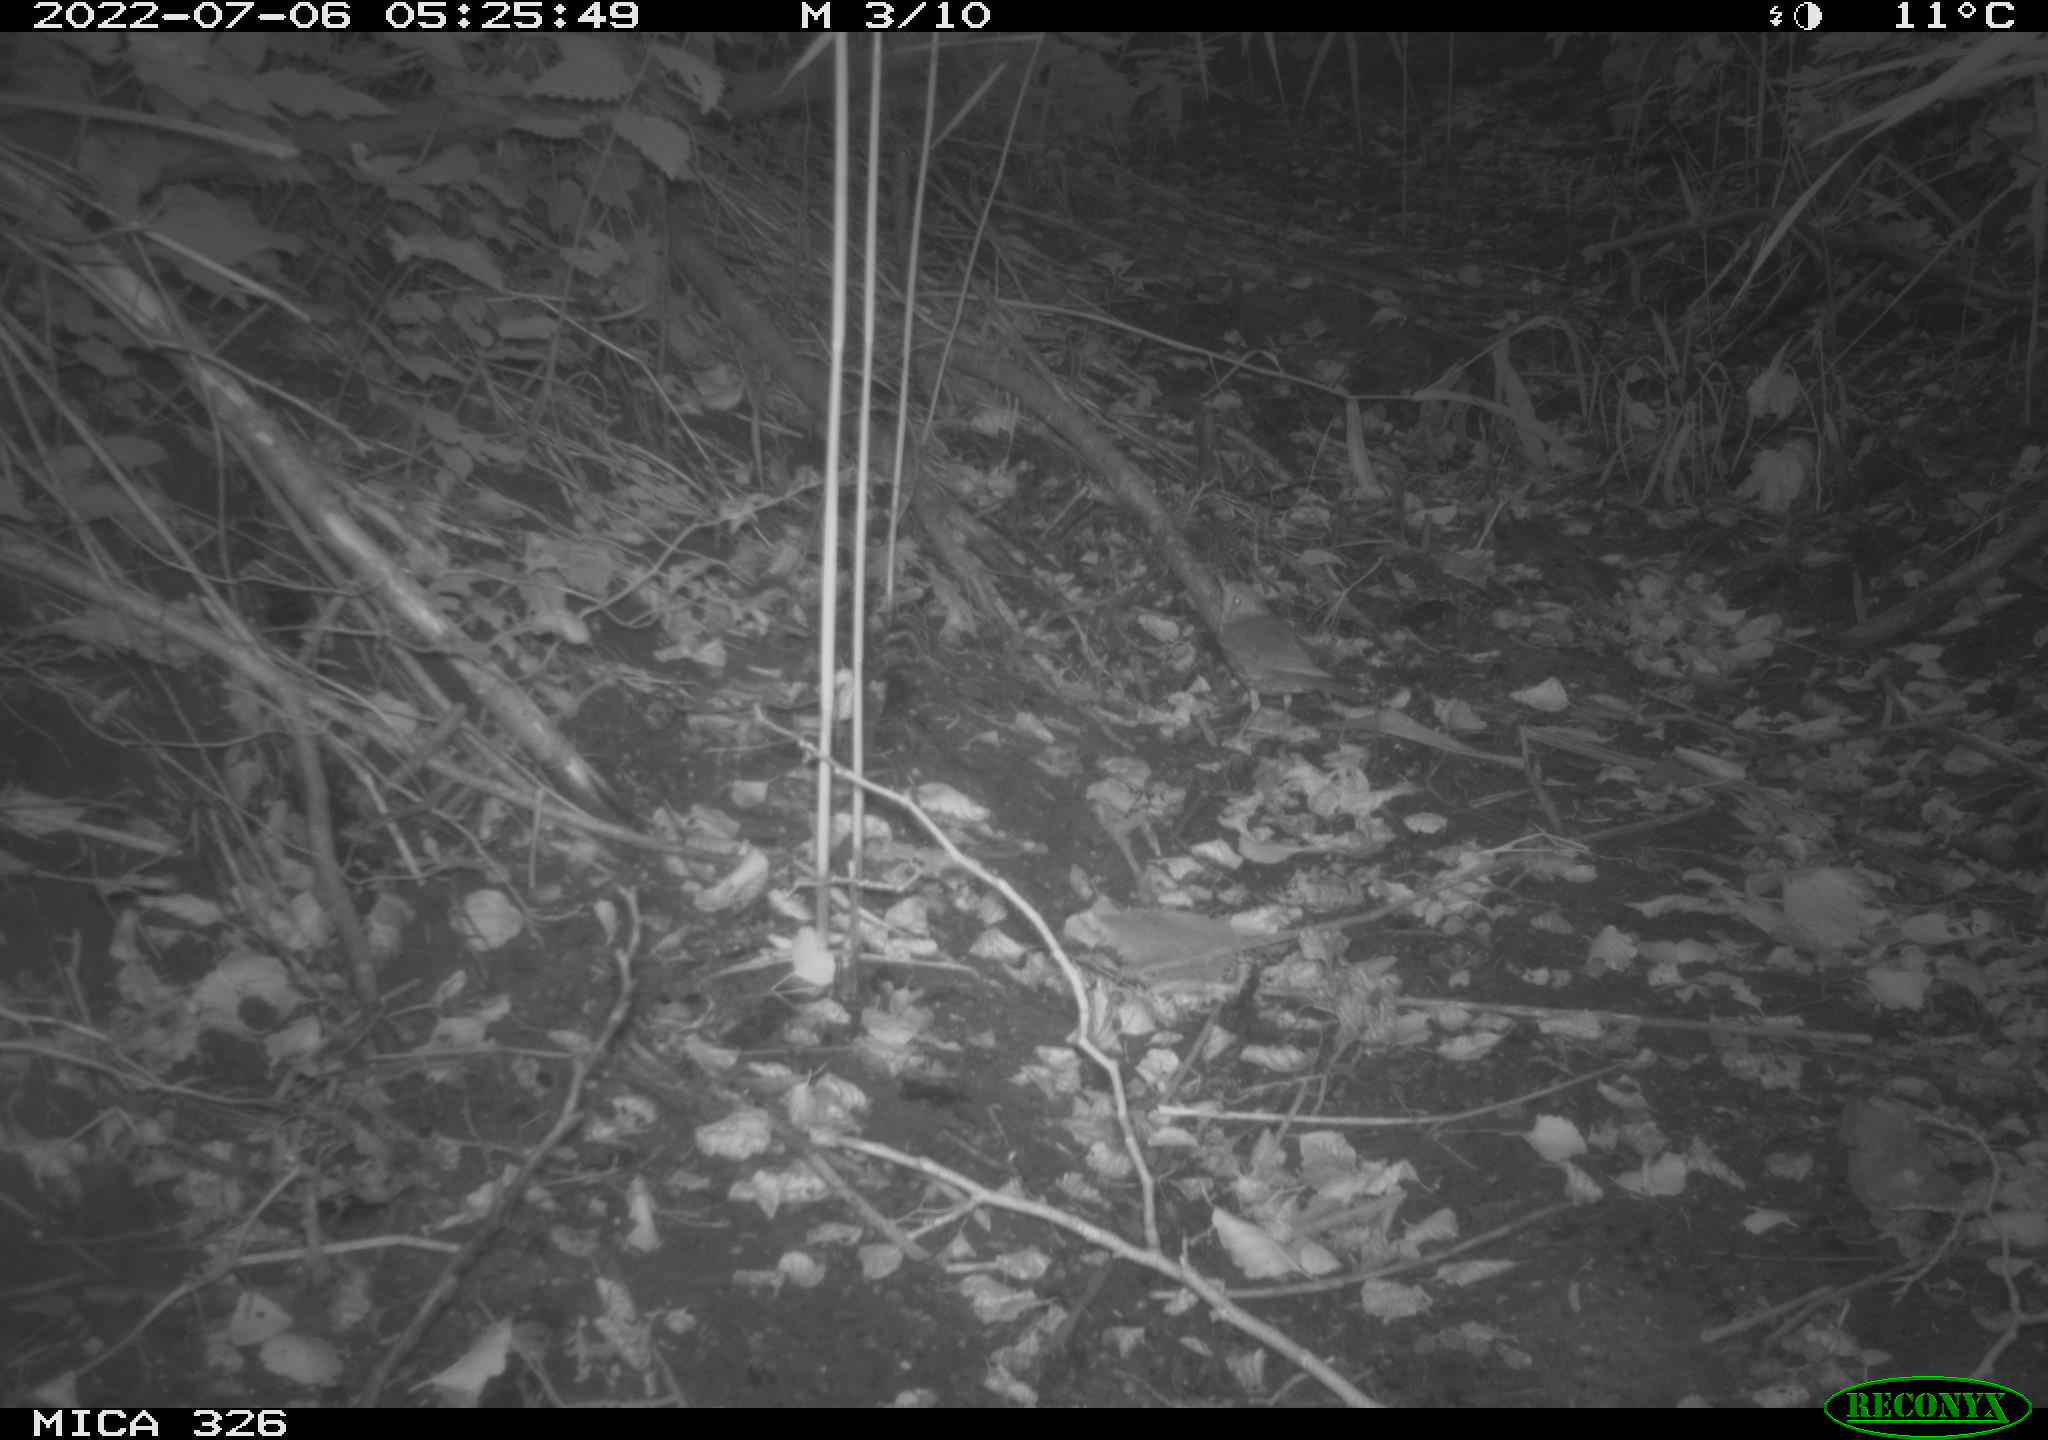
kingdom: Animalia
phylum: Chordata
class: Aves
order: Passeriformes
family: Turdidae
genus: Turdus
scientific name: Turdus philomelos
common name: Song thrush
